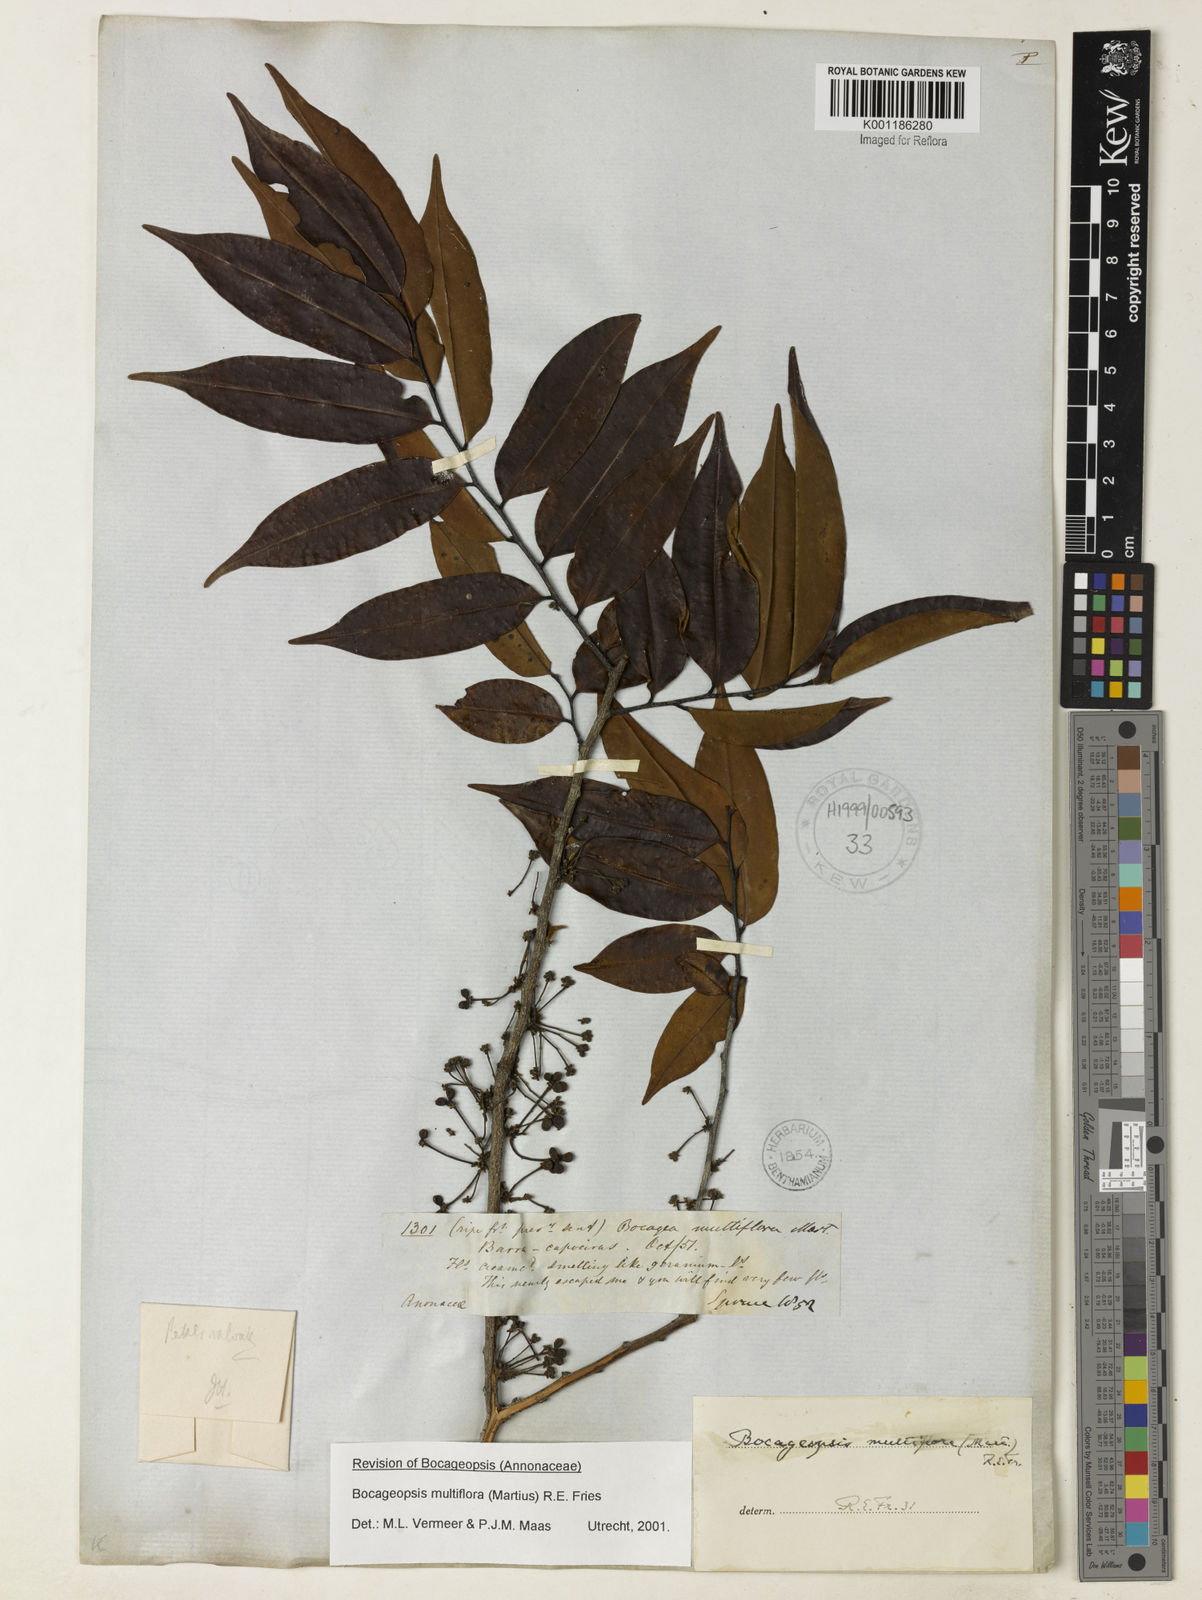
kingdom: Plantae
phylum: Tracheophyta
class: Magnoliopsida
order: Magnoliales
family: Annonaceae
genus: Bocageopsis
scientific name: Bocageopsis multiflora
